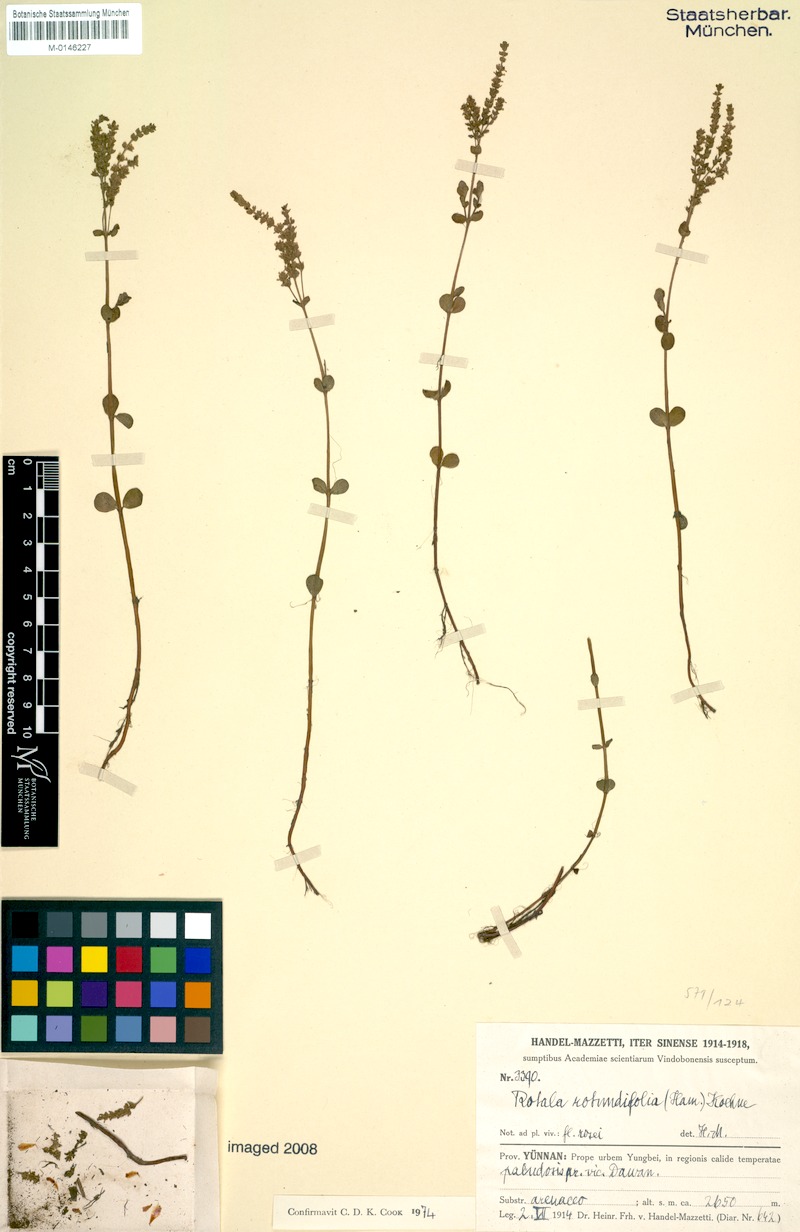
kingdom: Plantae
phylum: Tracheophyta
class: Magnoliopsida
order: Myrtales
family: Lythraceae
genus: Rotala
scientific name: Rotala rotundifolia
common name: Roundleaf toothcup
